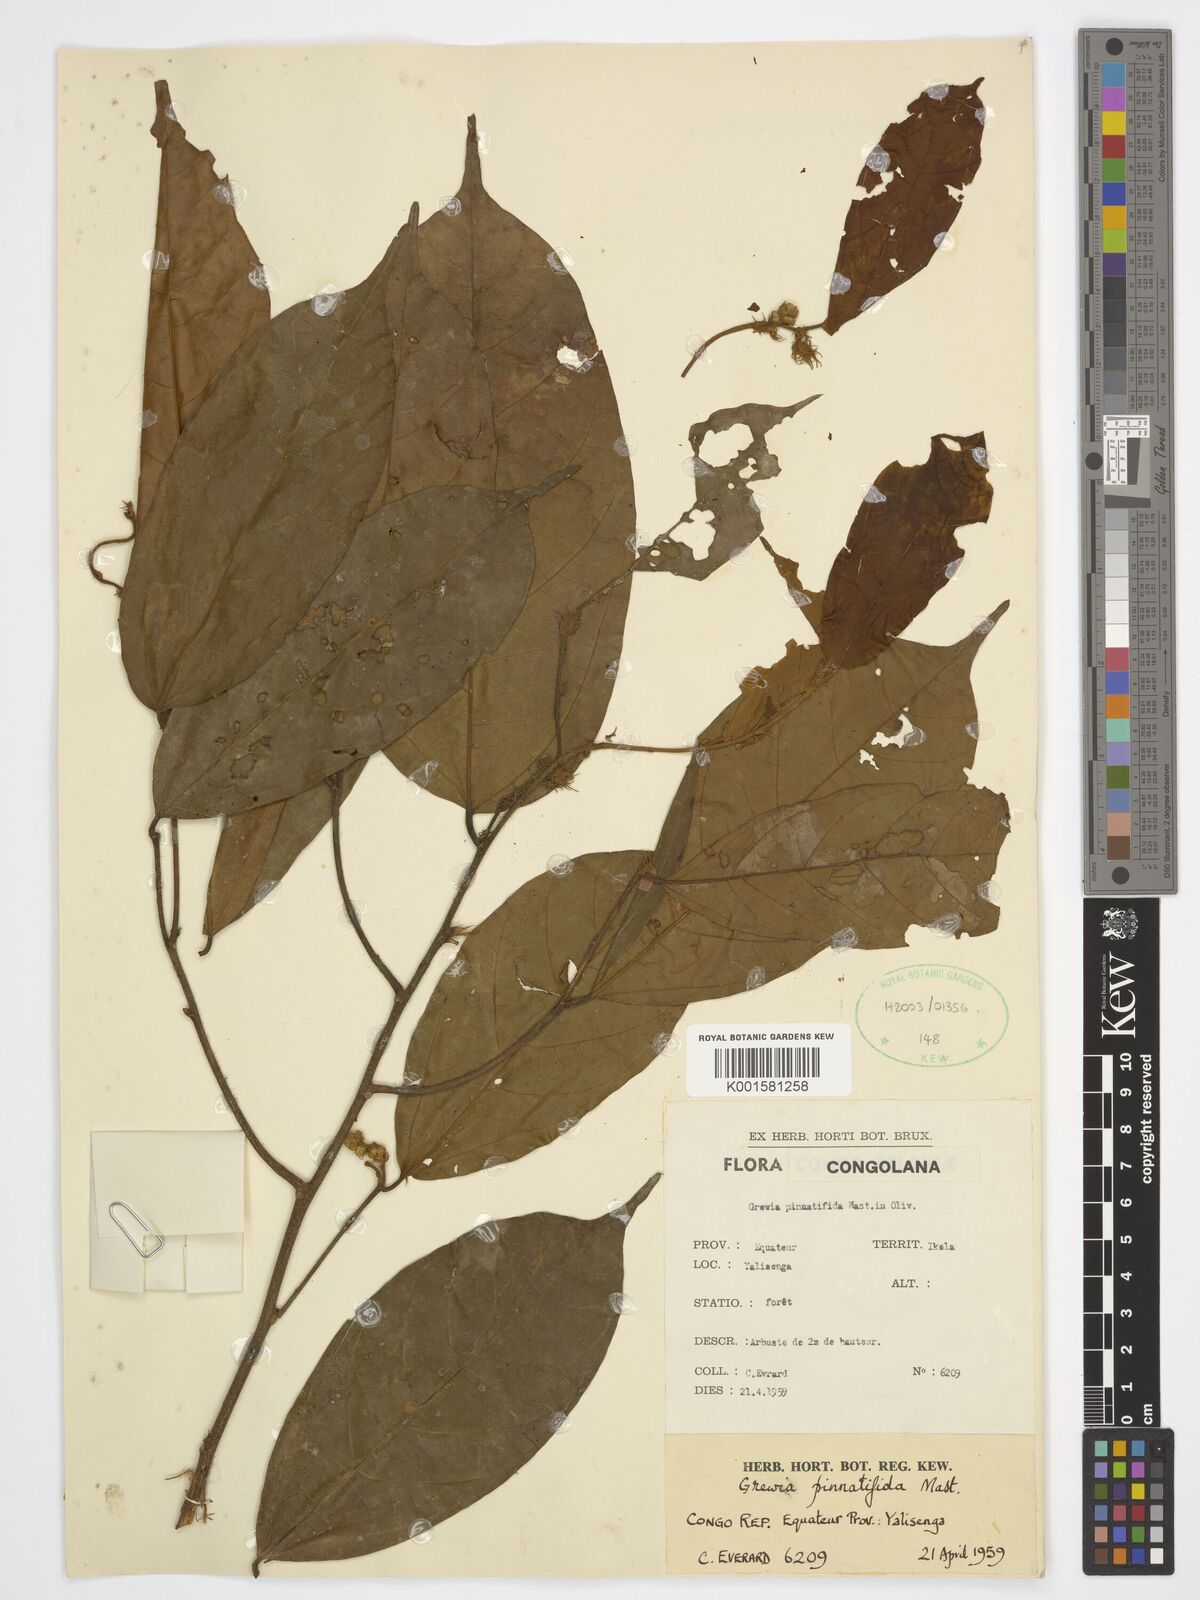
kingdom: Plantae
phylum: Tracheophyta
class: Magnoliopsida
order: Malvales
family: Malvaceae
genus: Microcos
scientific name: Microcos pinnatifida
